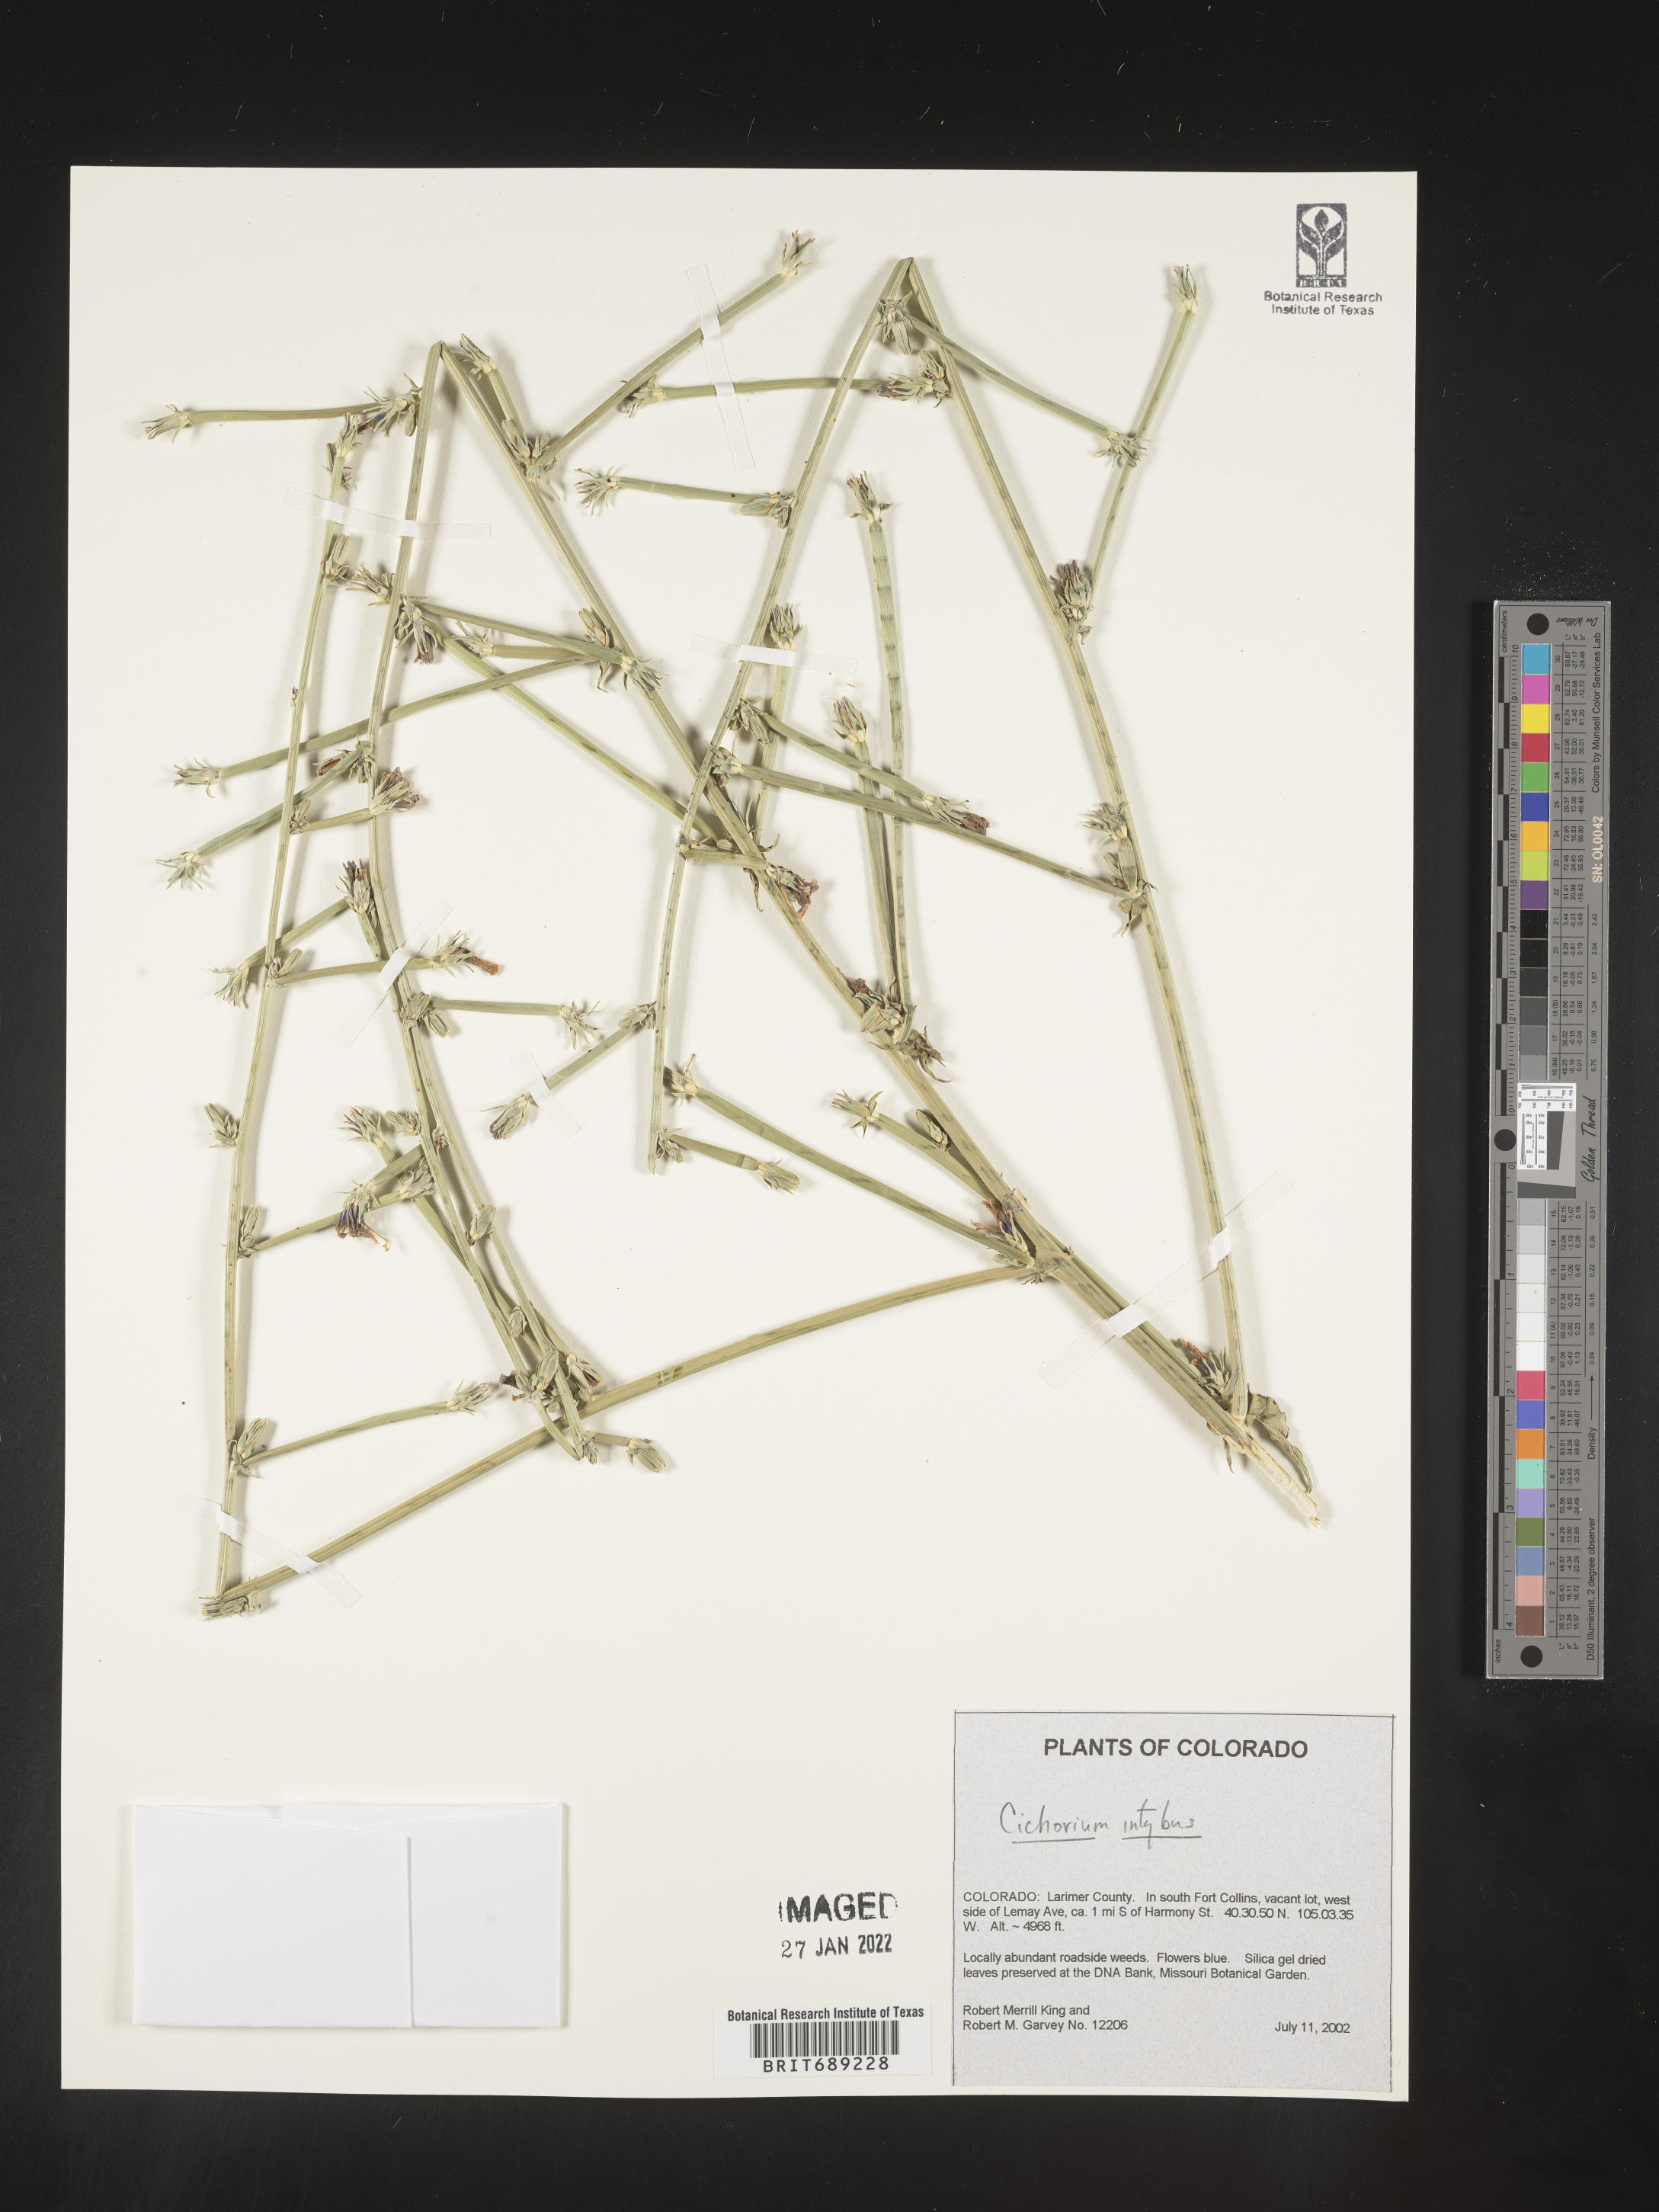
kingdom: Plantae
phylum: Tracheophyta
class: Magnoliopsida
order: Asterales
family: Asteraceae
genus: Cichorium
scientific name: Cichorium intybus
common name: Chicory
